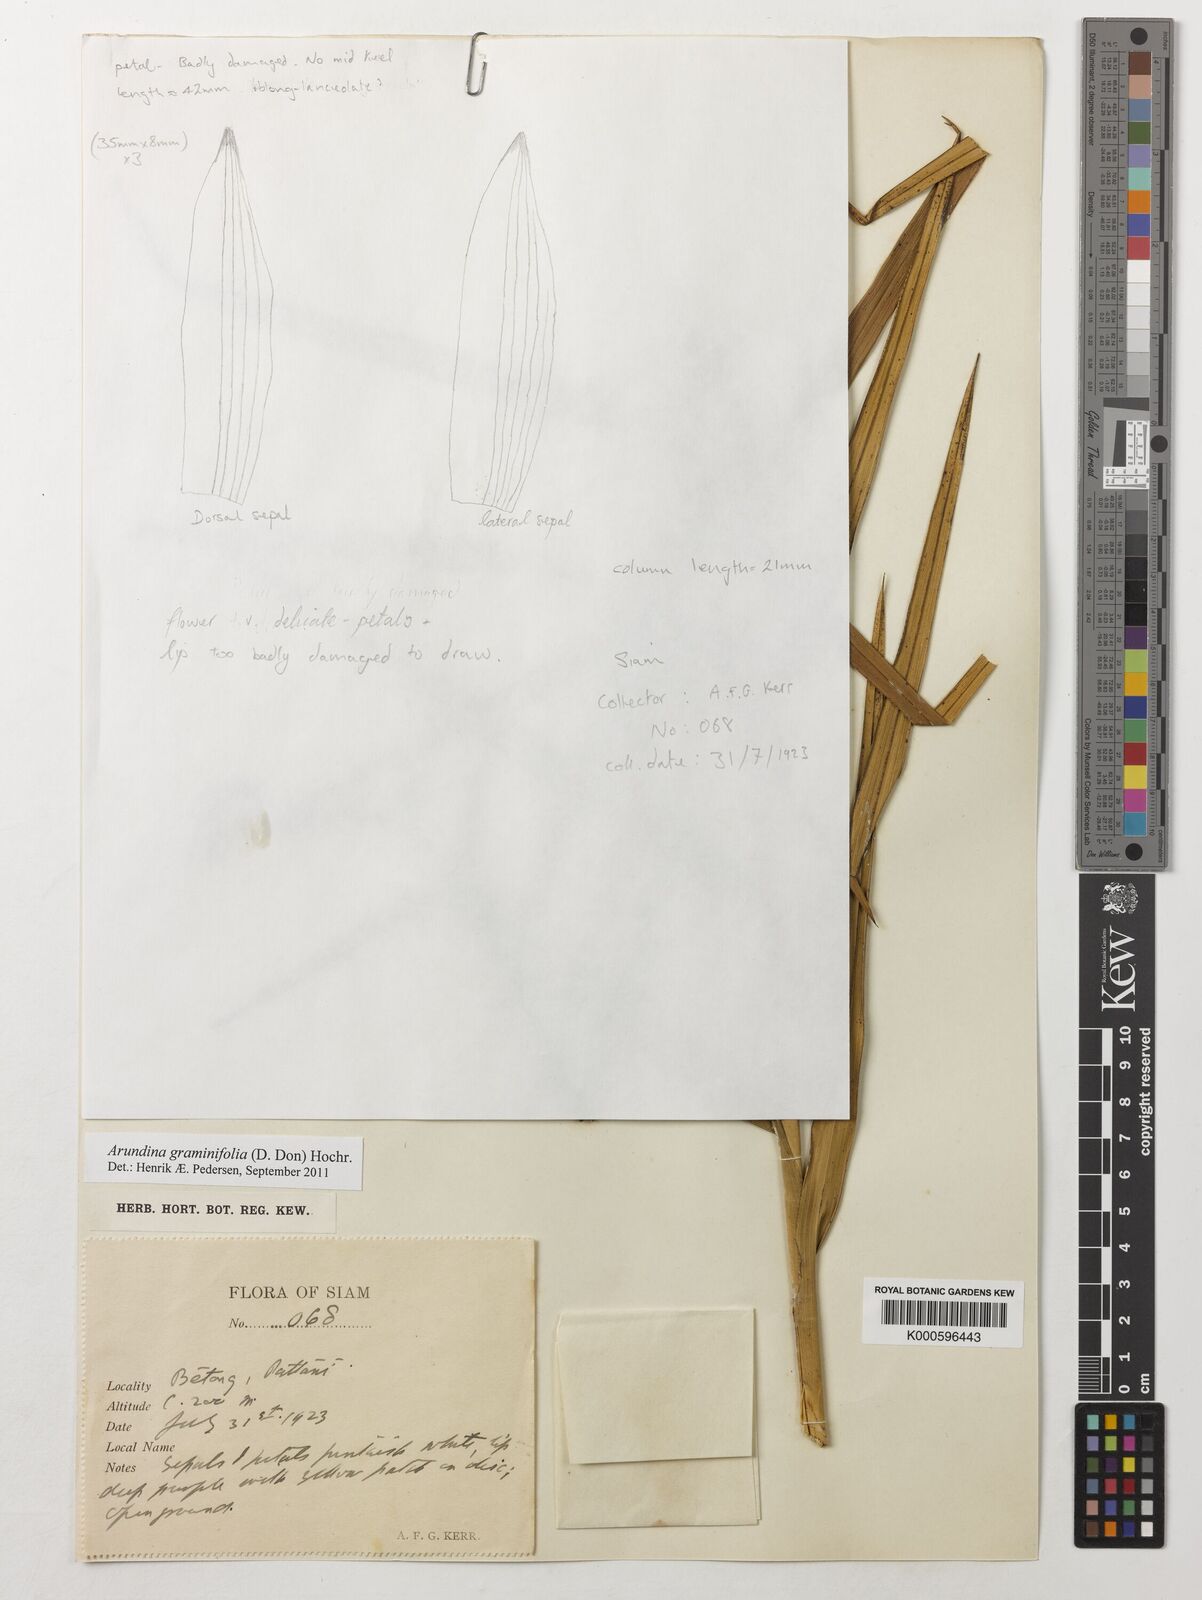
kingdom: Plantae
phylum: Tracheophyta
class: Liliopsida
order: Asparagales
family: Orchidaceae
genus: Arundina
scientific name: Arundina graminifolia
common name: Bamboo orchid
